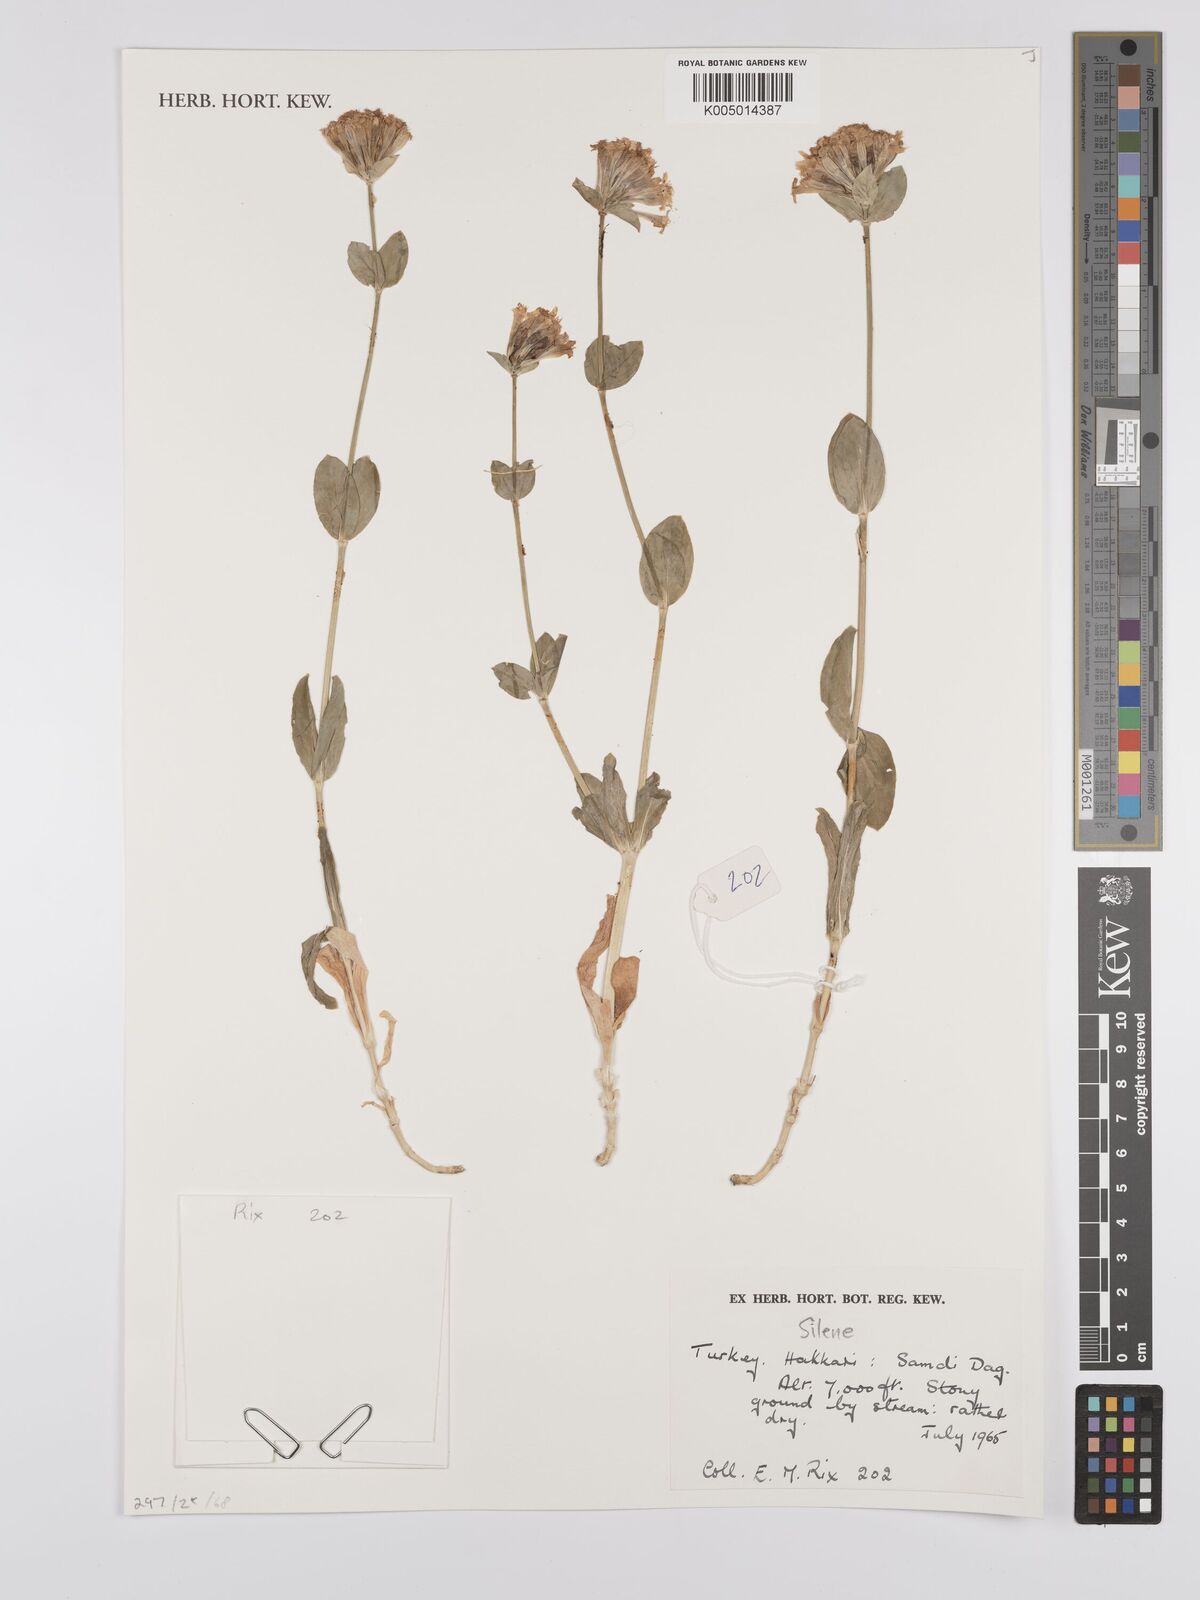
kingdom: Plantae
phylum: Tracheophyta
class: Magnoliopsida
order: Caryophyllales
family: Caryophyllaceae
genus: Silene
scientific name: Silene
